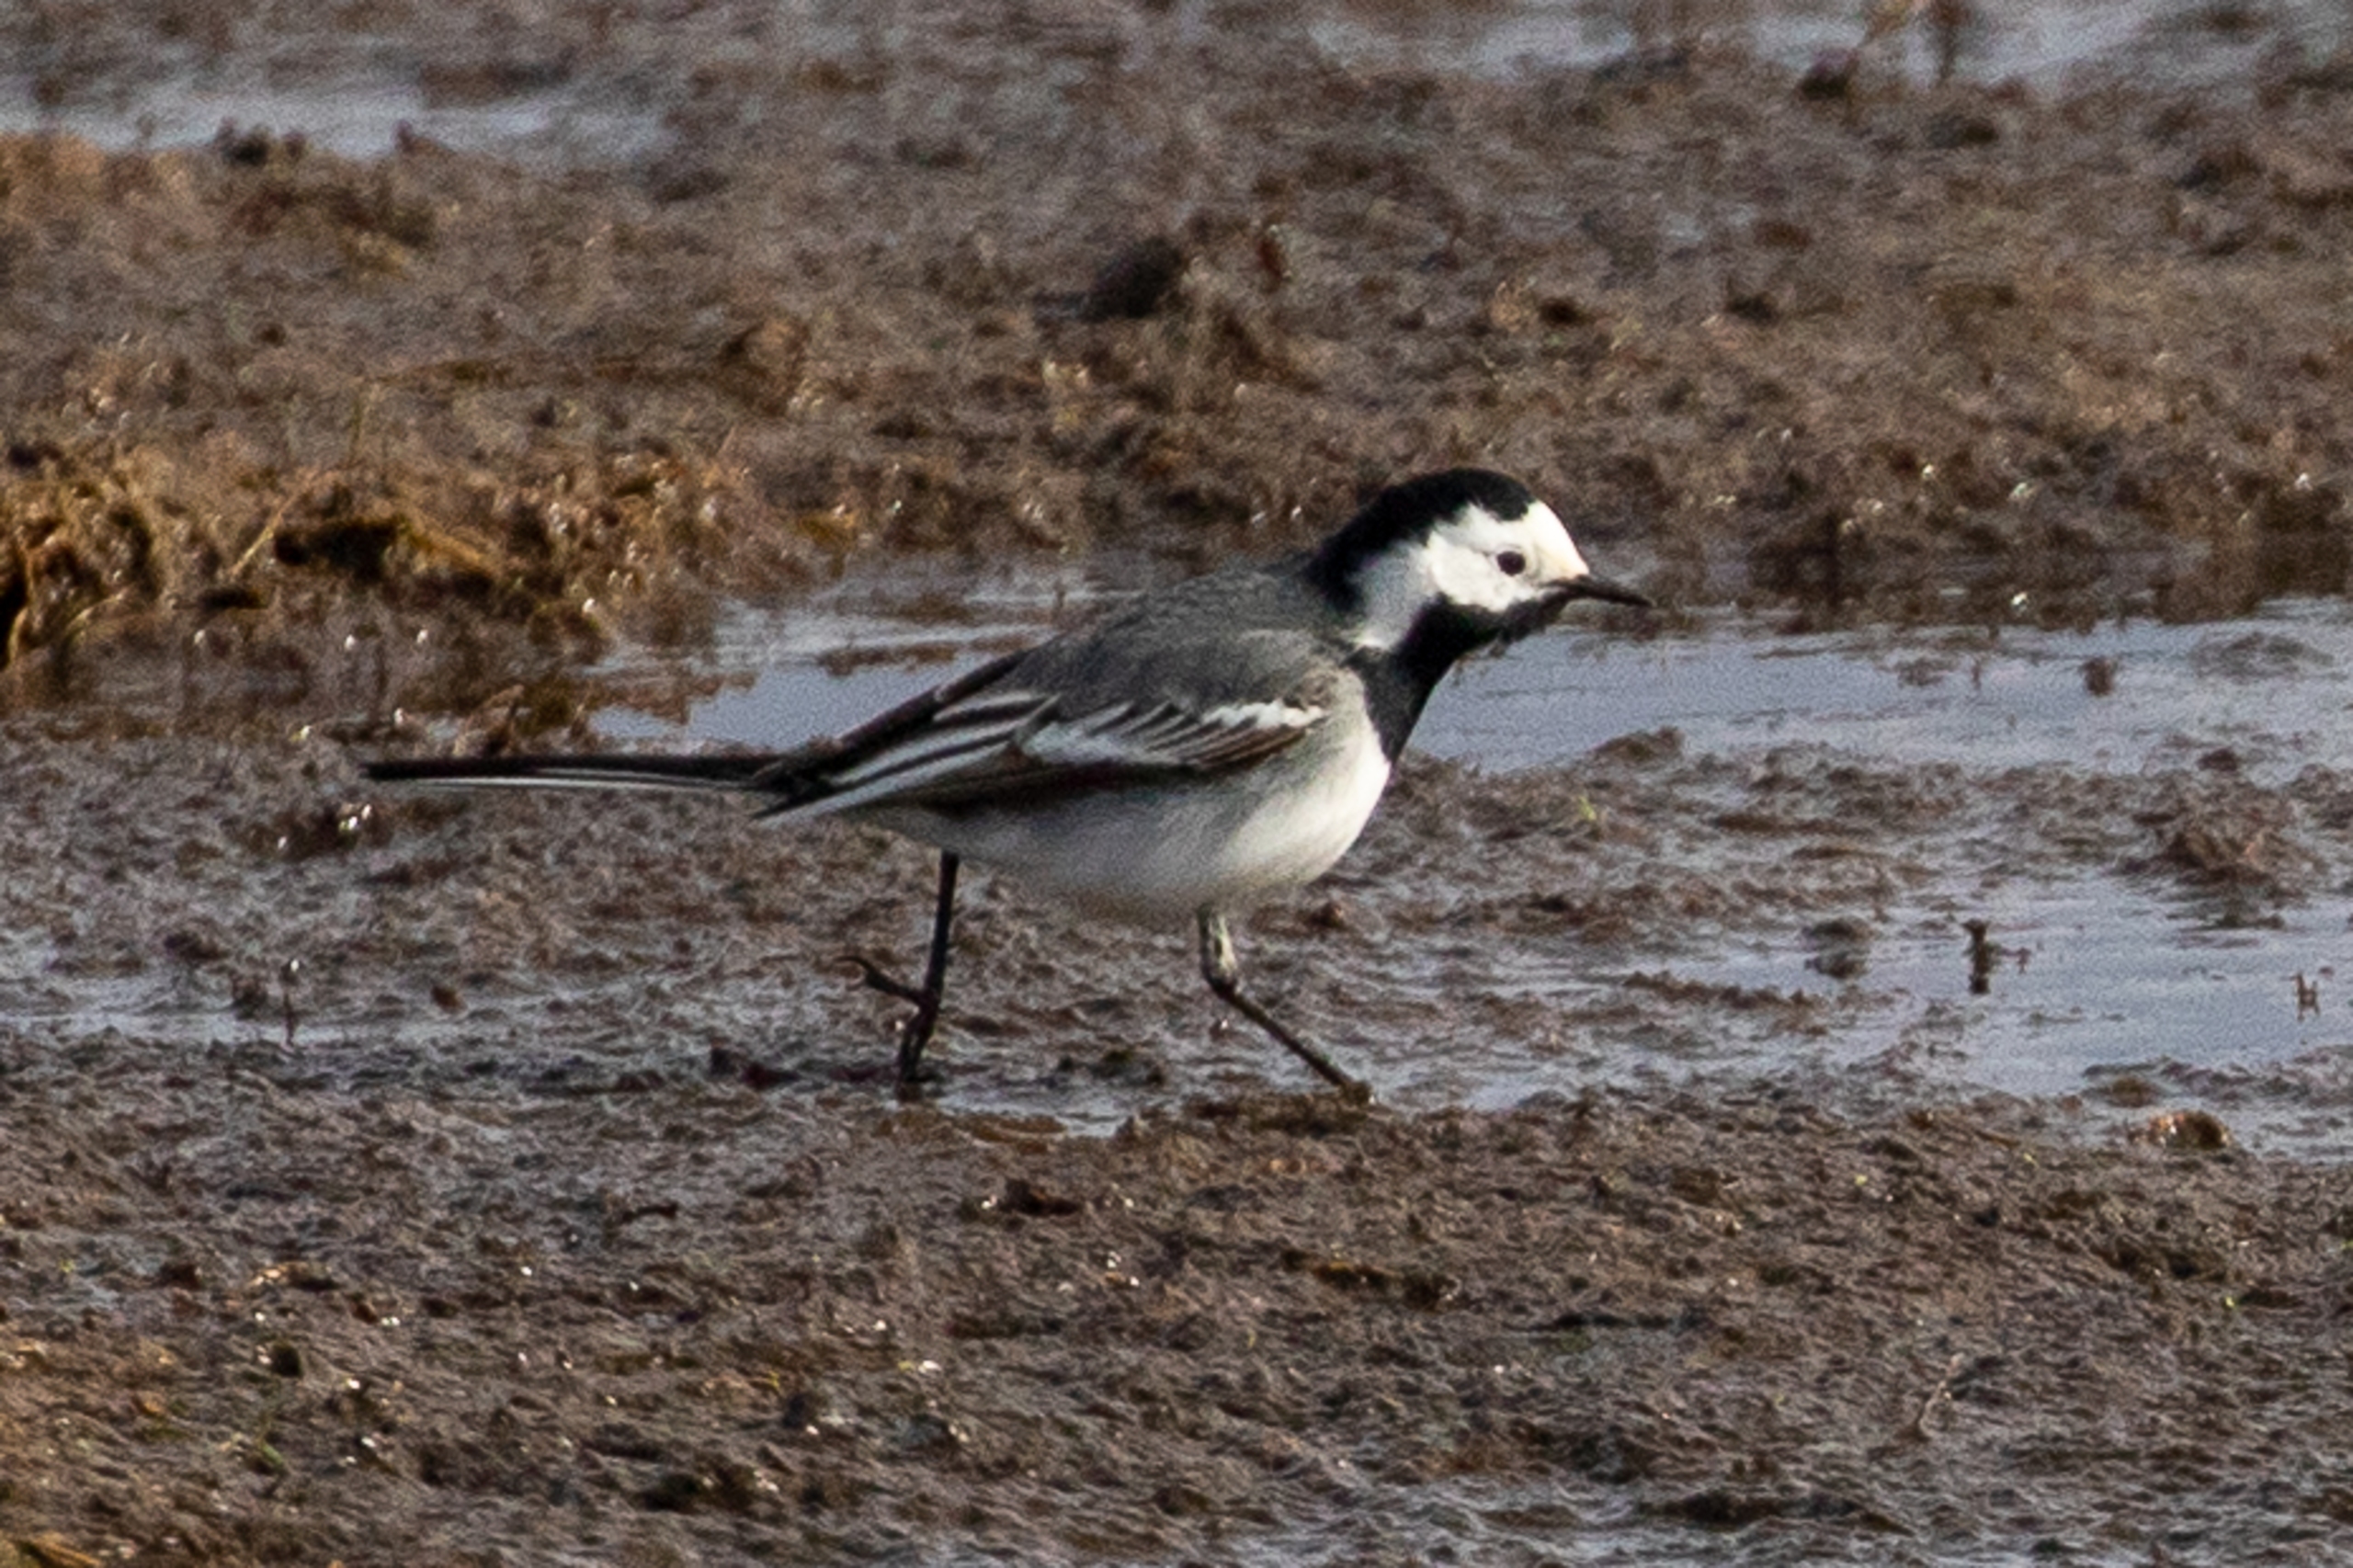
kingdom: Animalia
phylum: Chordata
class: Aves
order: Passeriformes
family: Motacillidae
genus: Motacilla
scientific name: Motacilla alba
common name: Hvid vipstjert
